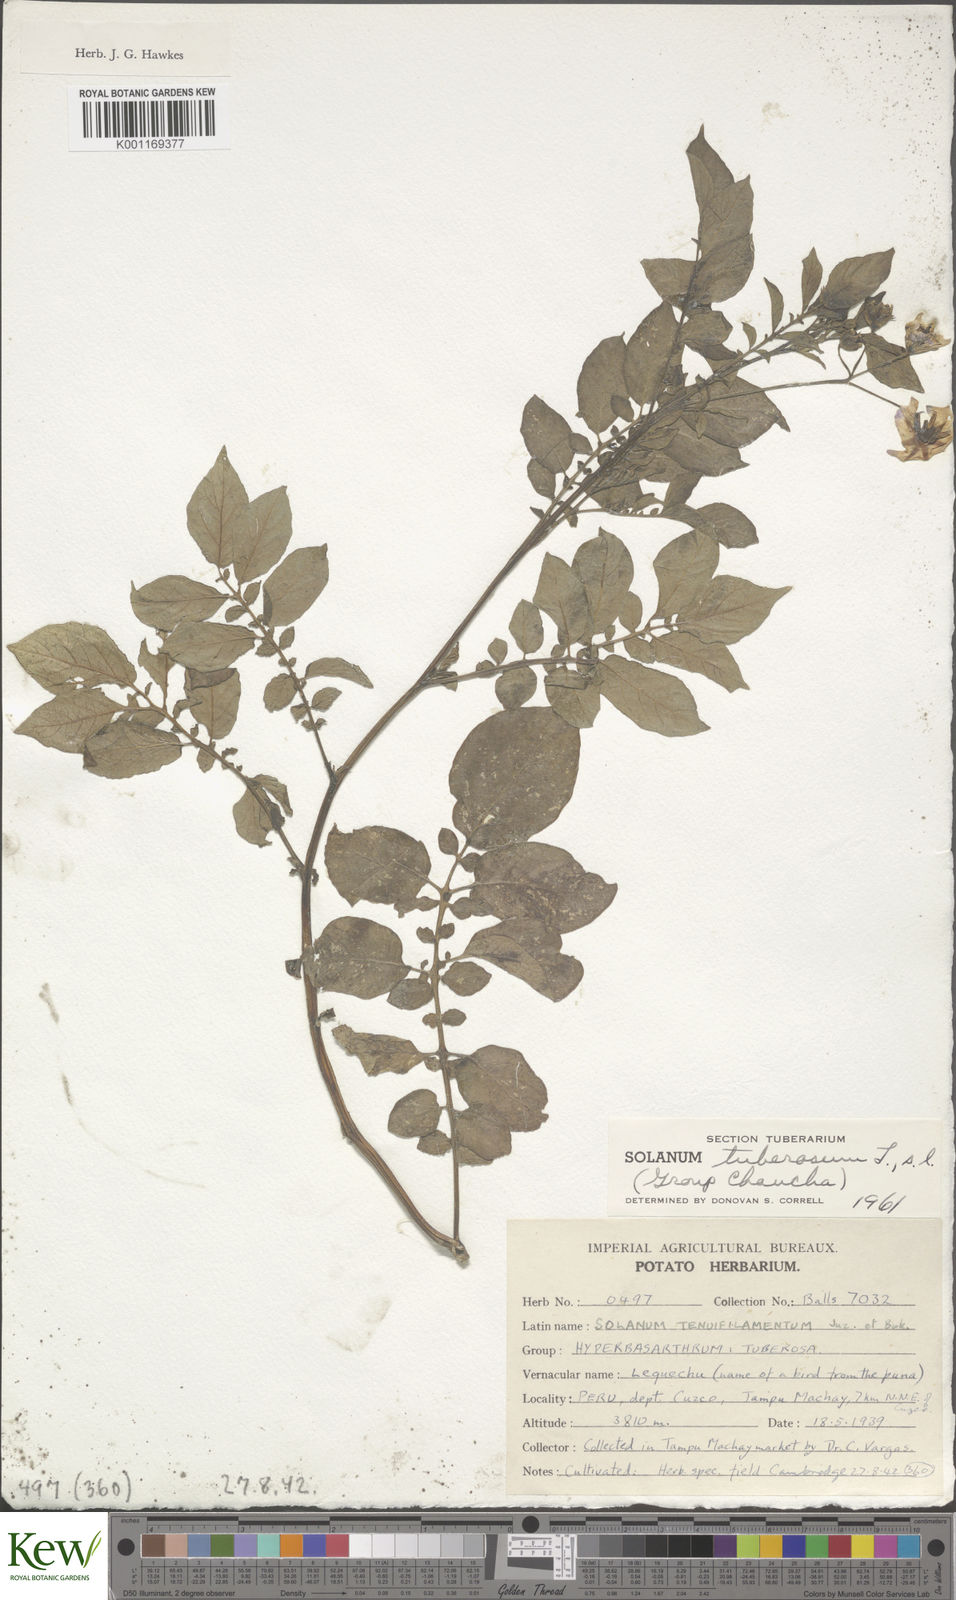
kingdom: Plantae
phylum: Tracheophyta
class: Magnoliopsida
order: Solanales
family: Solanaceae
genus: Solanum
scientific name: Solanum chaucha
